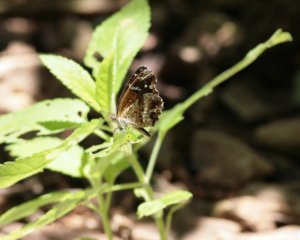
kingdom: Animalia
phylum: Arthropoda
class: Insecta
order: Lepidoptera
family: Nymphalidae
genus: Anthanassa
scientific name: Anthanassa texana
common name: Texan Crescent
